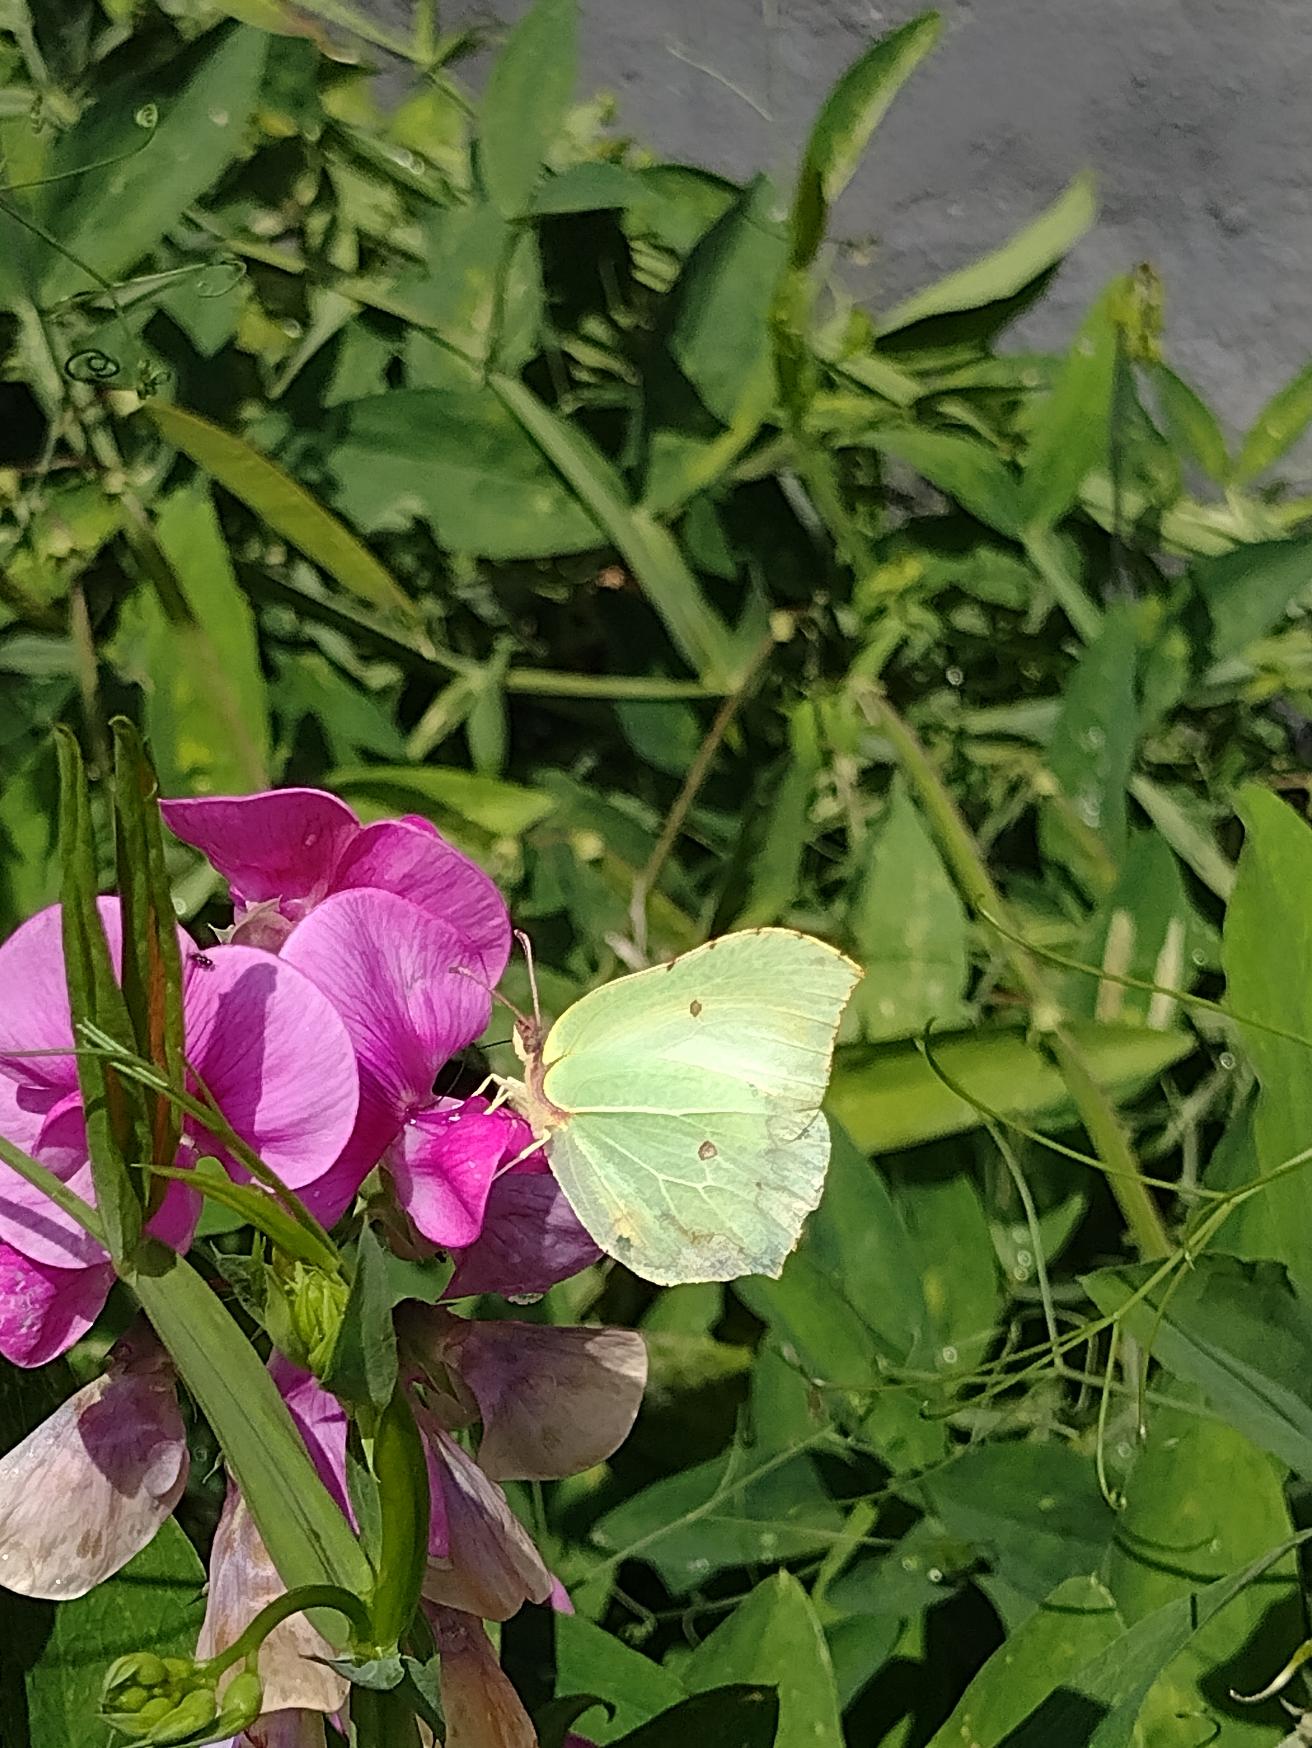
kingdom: Animalia
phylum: Arthropoda
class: Insecta
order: Lepidoptera
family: Pieridae
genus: Gonepteryx
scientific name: Gonepteryx rhamni
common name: Citronsommerfugl
